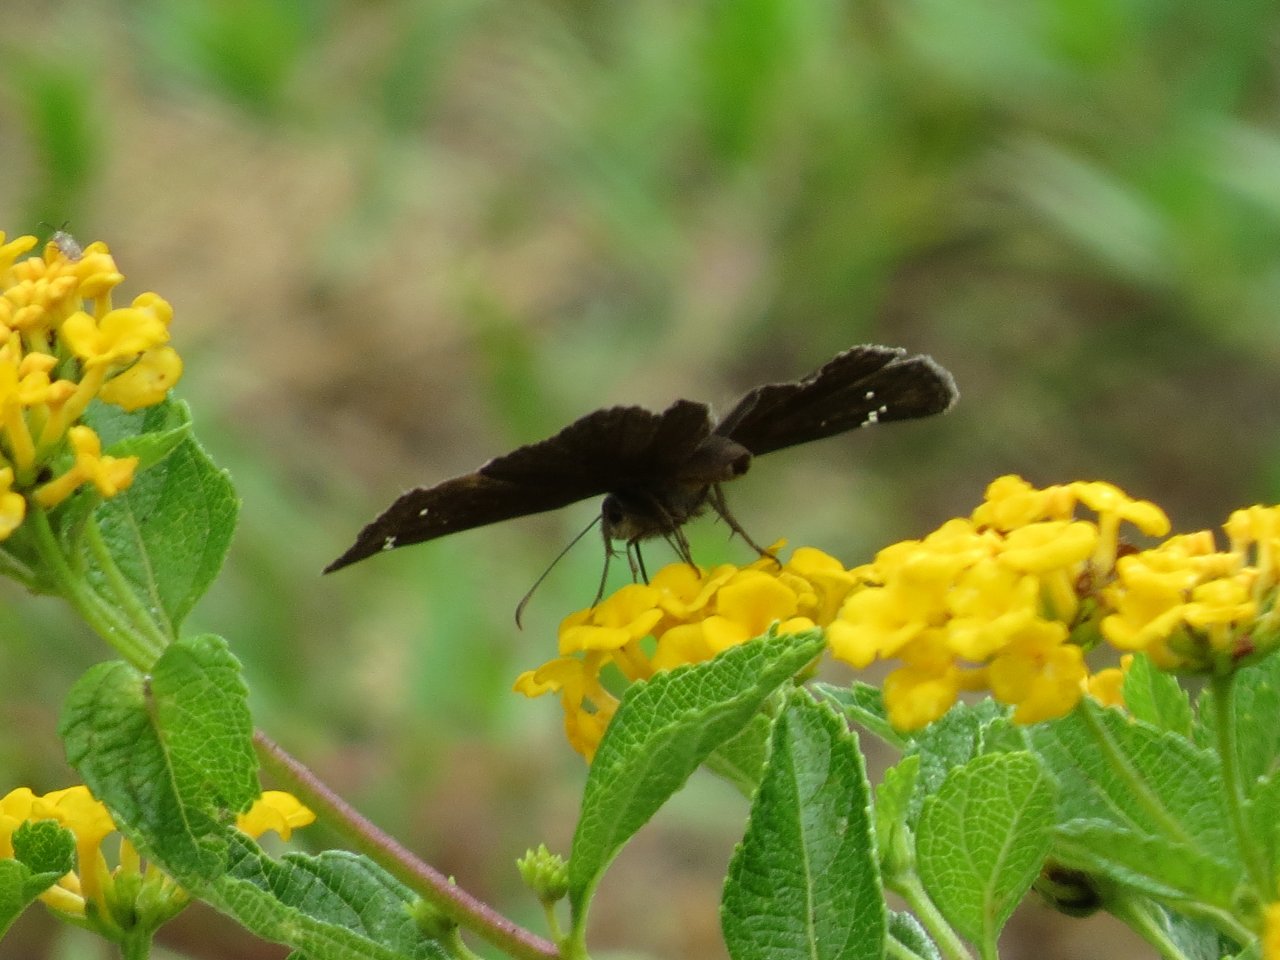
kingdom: Animalia
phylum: Arthropoda
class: Insecta
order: Lepidoptera
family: Hesperiidae
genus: Gesta
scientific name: Gesta
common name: Horace's Duskywing
